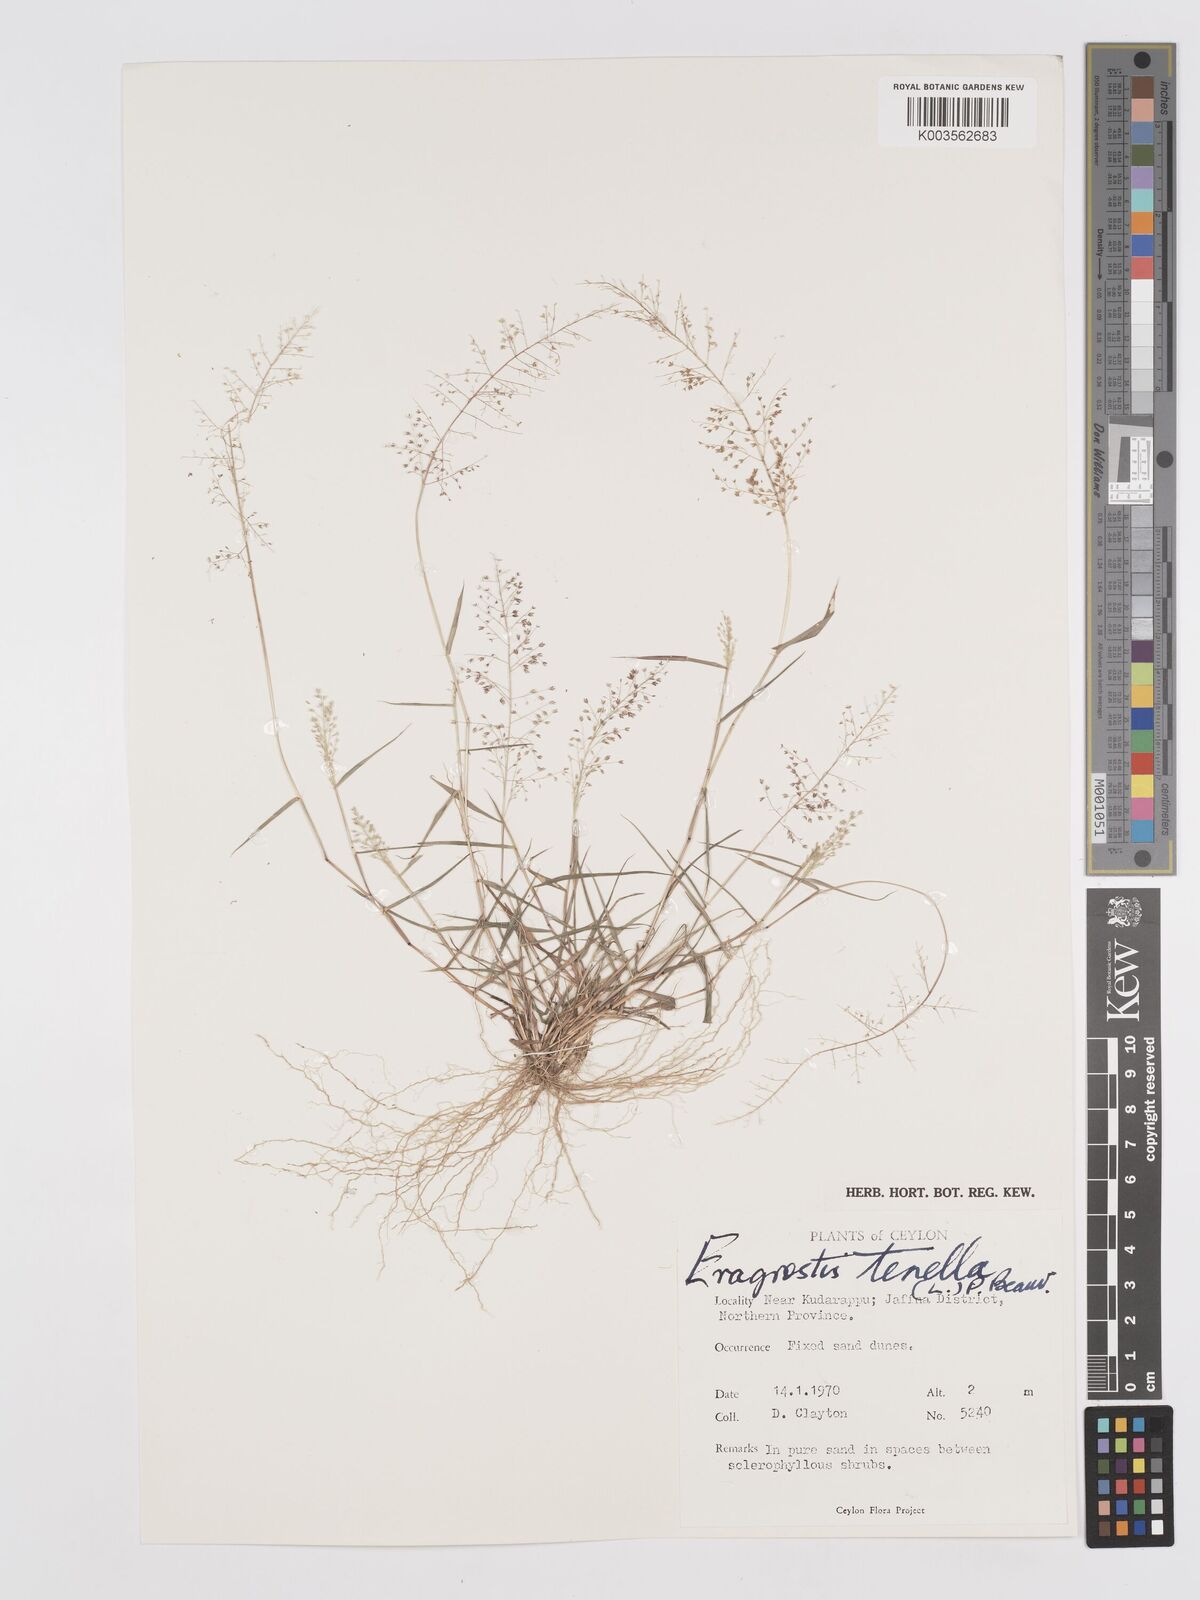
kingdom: Plantae
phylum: Tracheophyta
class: Liliopsida
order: Poales
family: Poaceae
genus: Eragrostis
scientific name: Eragrostis tenella
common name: Japanese lovegrass
